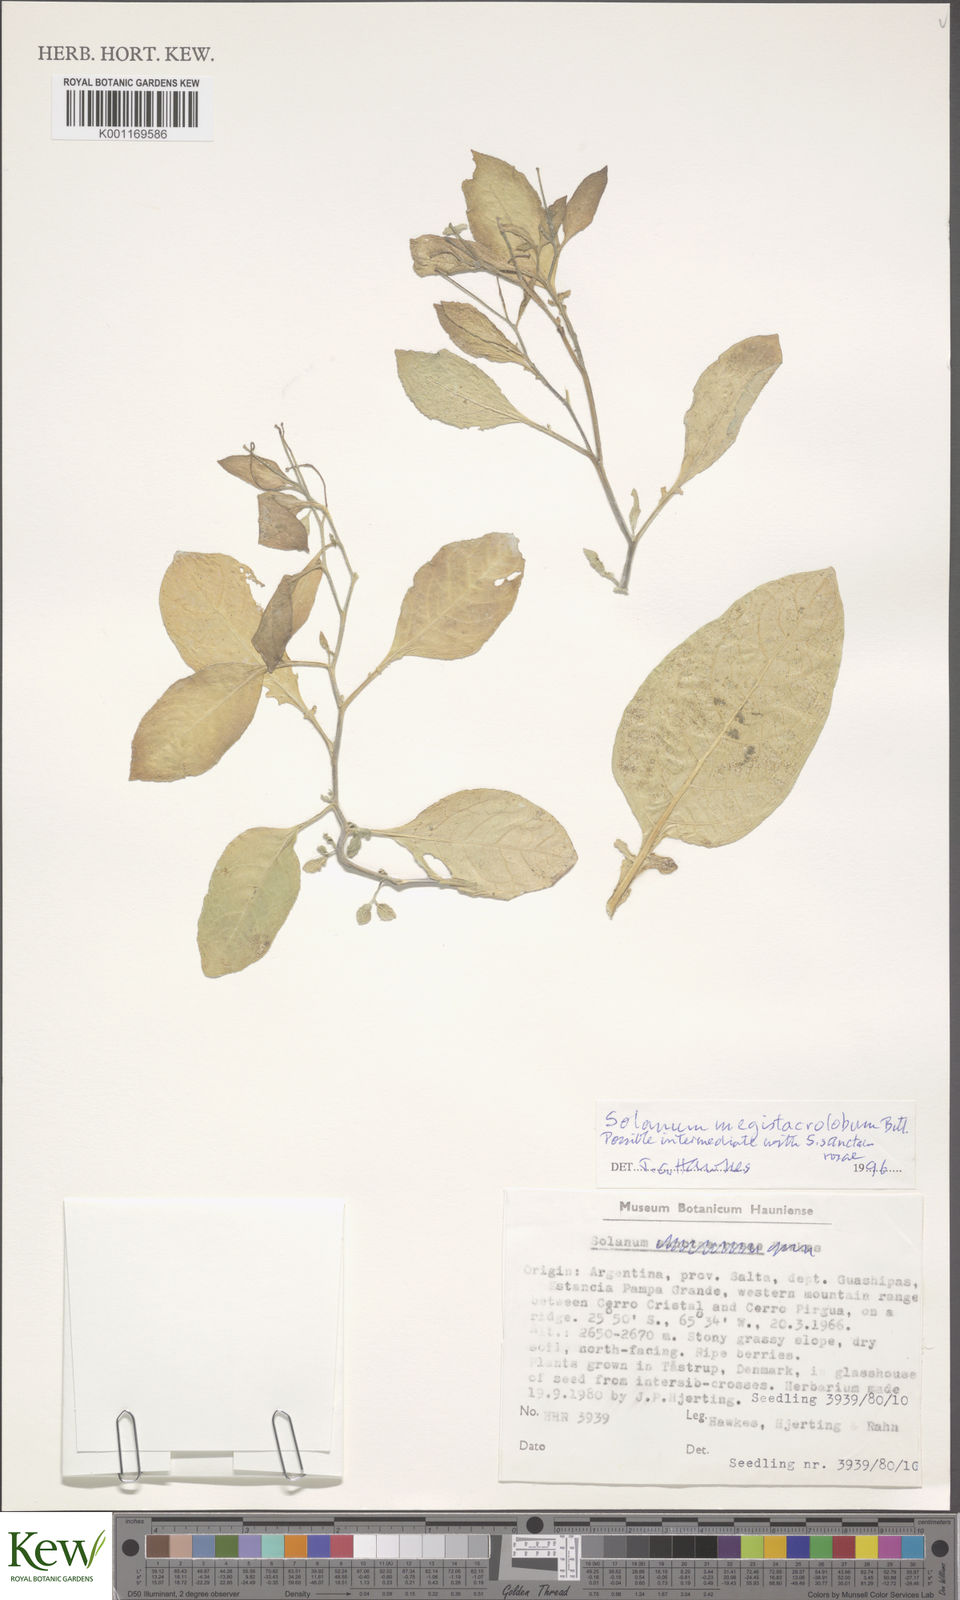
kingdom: Plantae
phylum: Tracheophyta
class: Magnoliopsida
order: Solanales
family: Solanaceae
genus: Solanum
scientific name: Solanum boliviense
